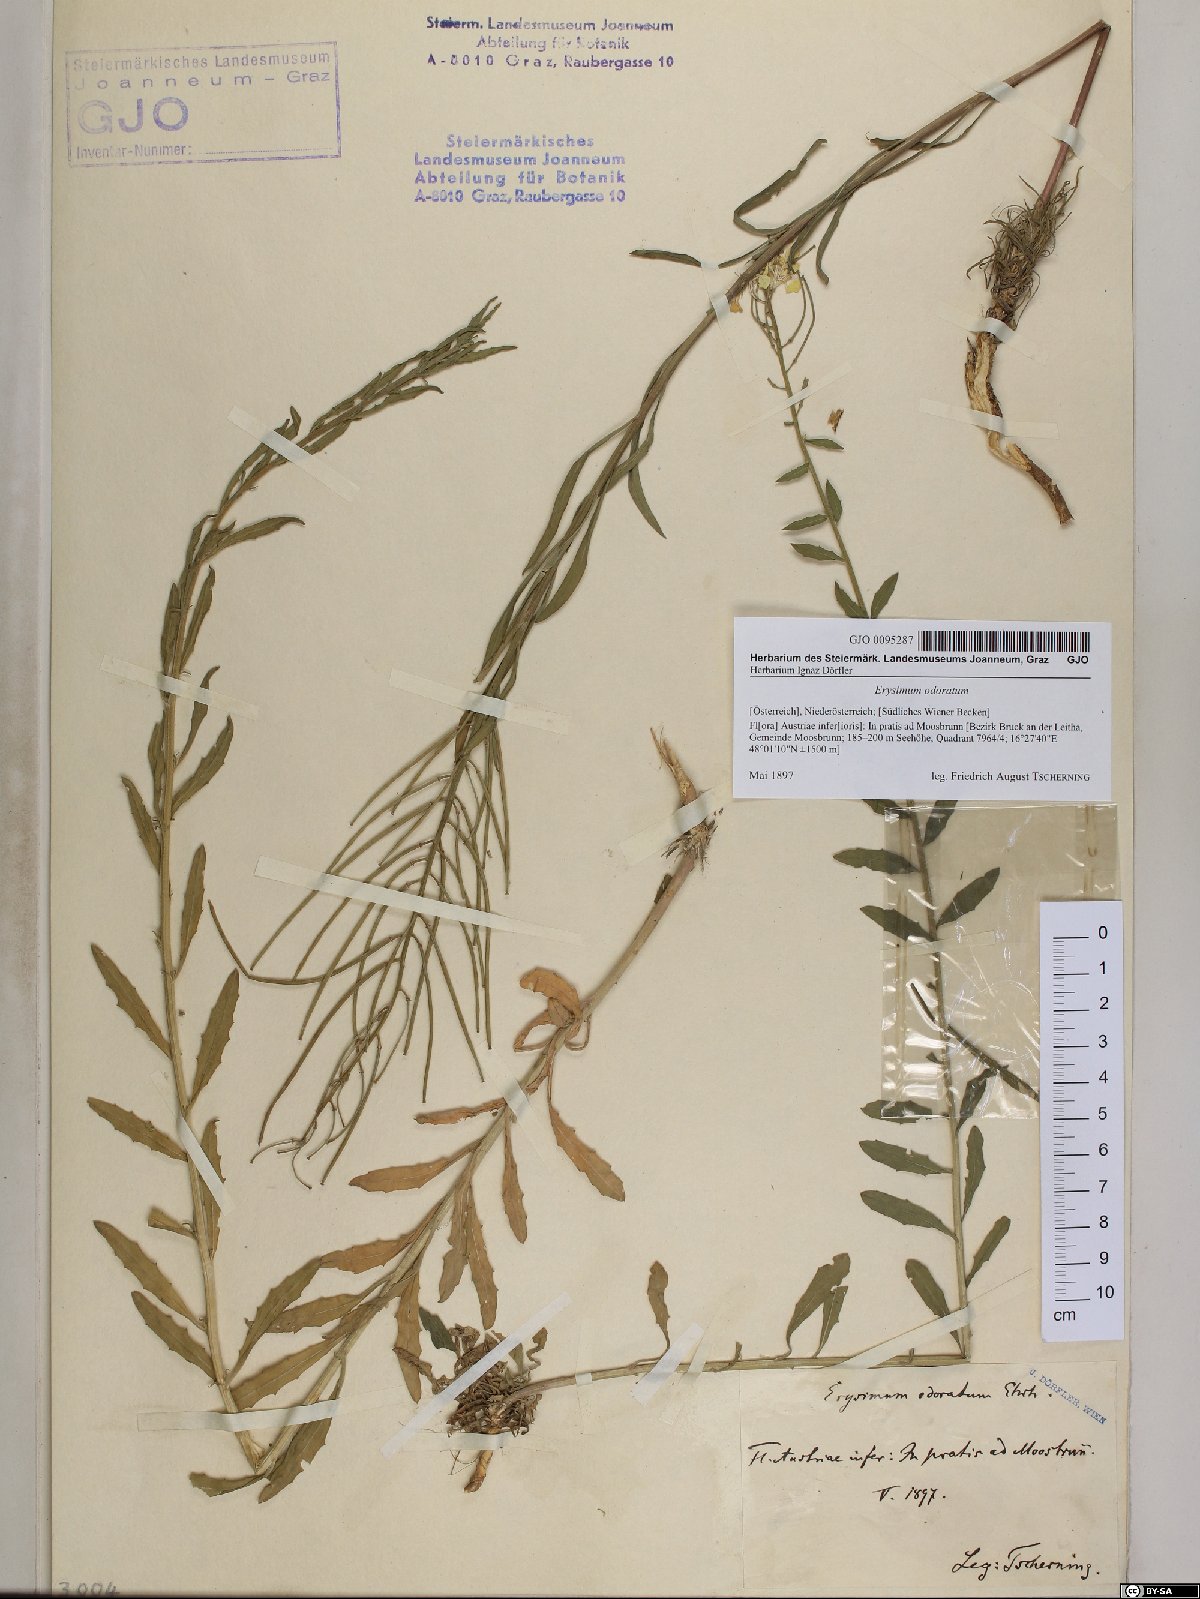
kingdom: Plantae
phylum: Tracheophyta
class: Magnoliopsida
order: Brassicales
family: Brassicaceae
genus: Erysimum
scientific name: Erysimum odoratum
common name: Smelly wallflower
